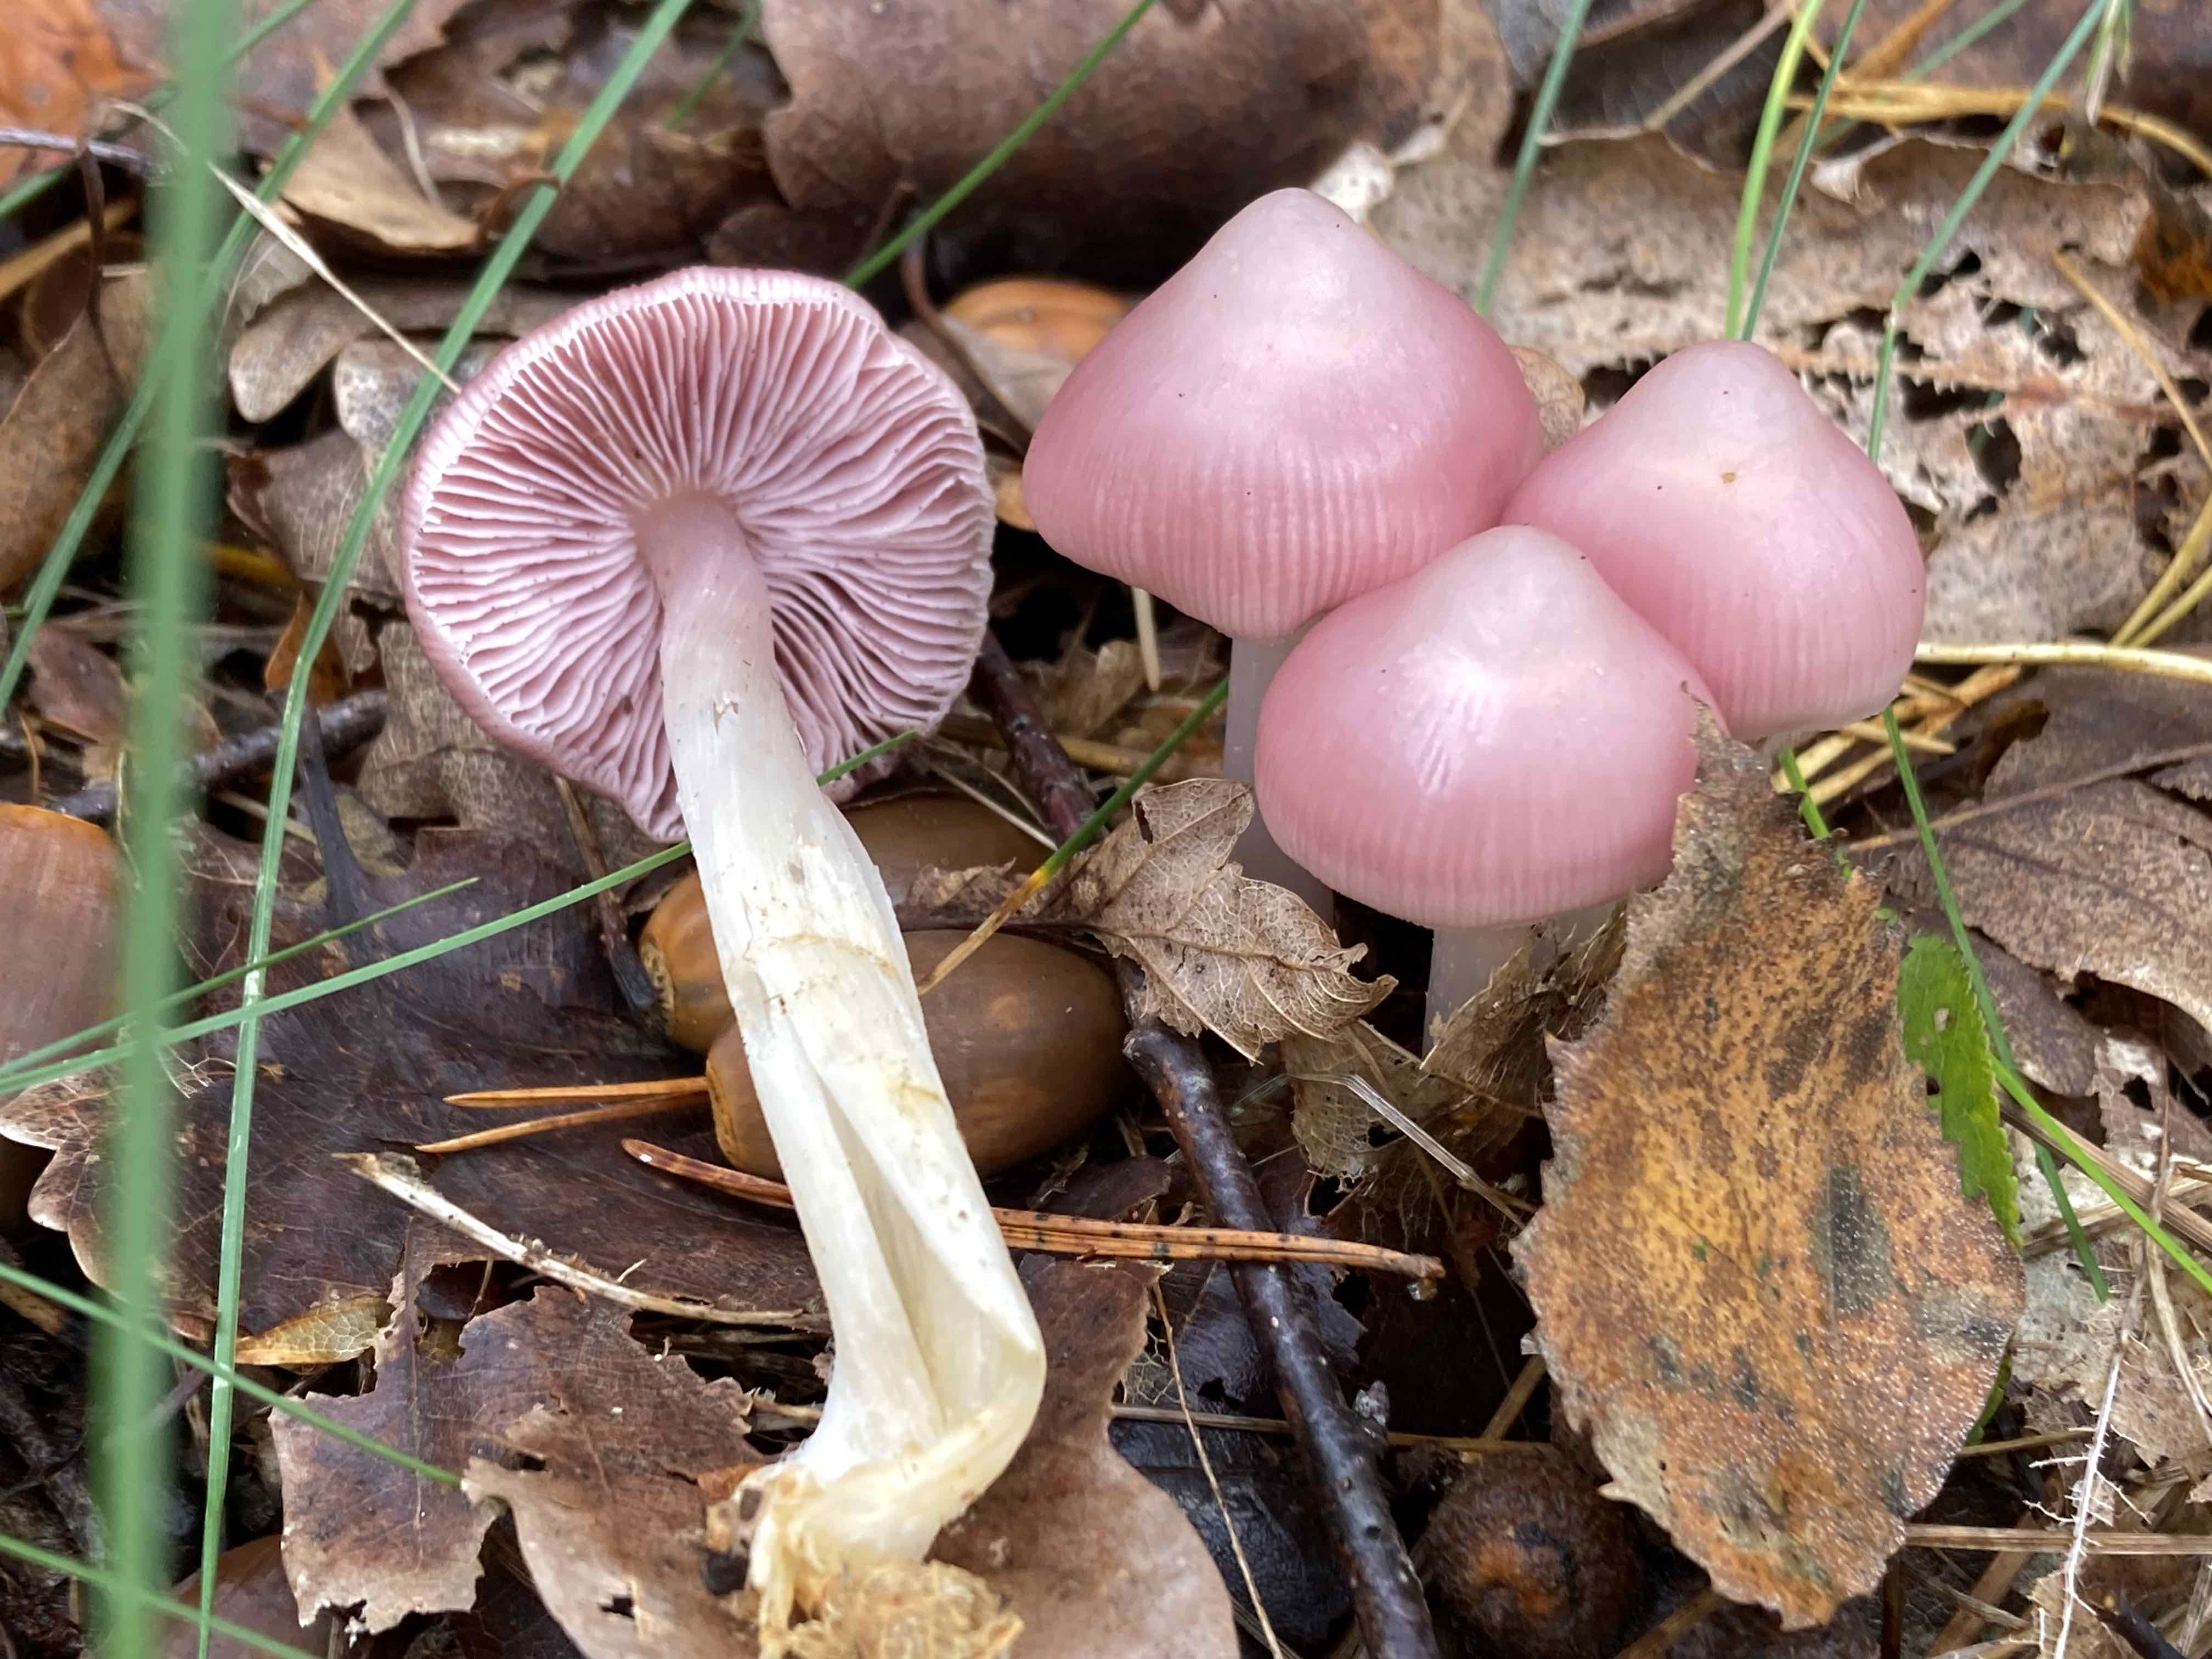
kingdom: Fungi
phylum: Basidiomycota
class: Agaricomycetes
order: Agaricales
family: Mycenaceae
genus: Mycena
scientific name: Mycena rosea
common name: rosa huesvamp
